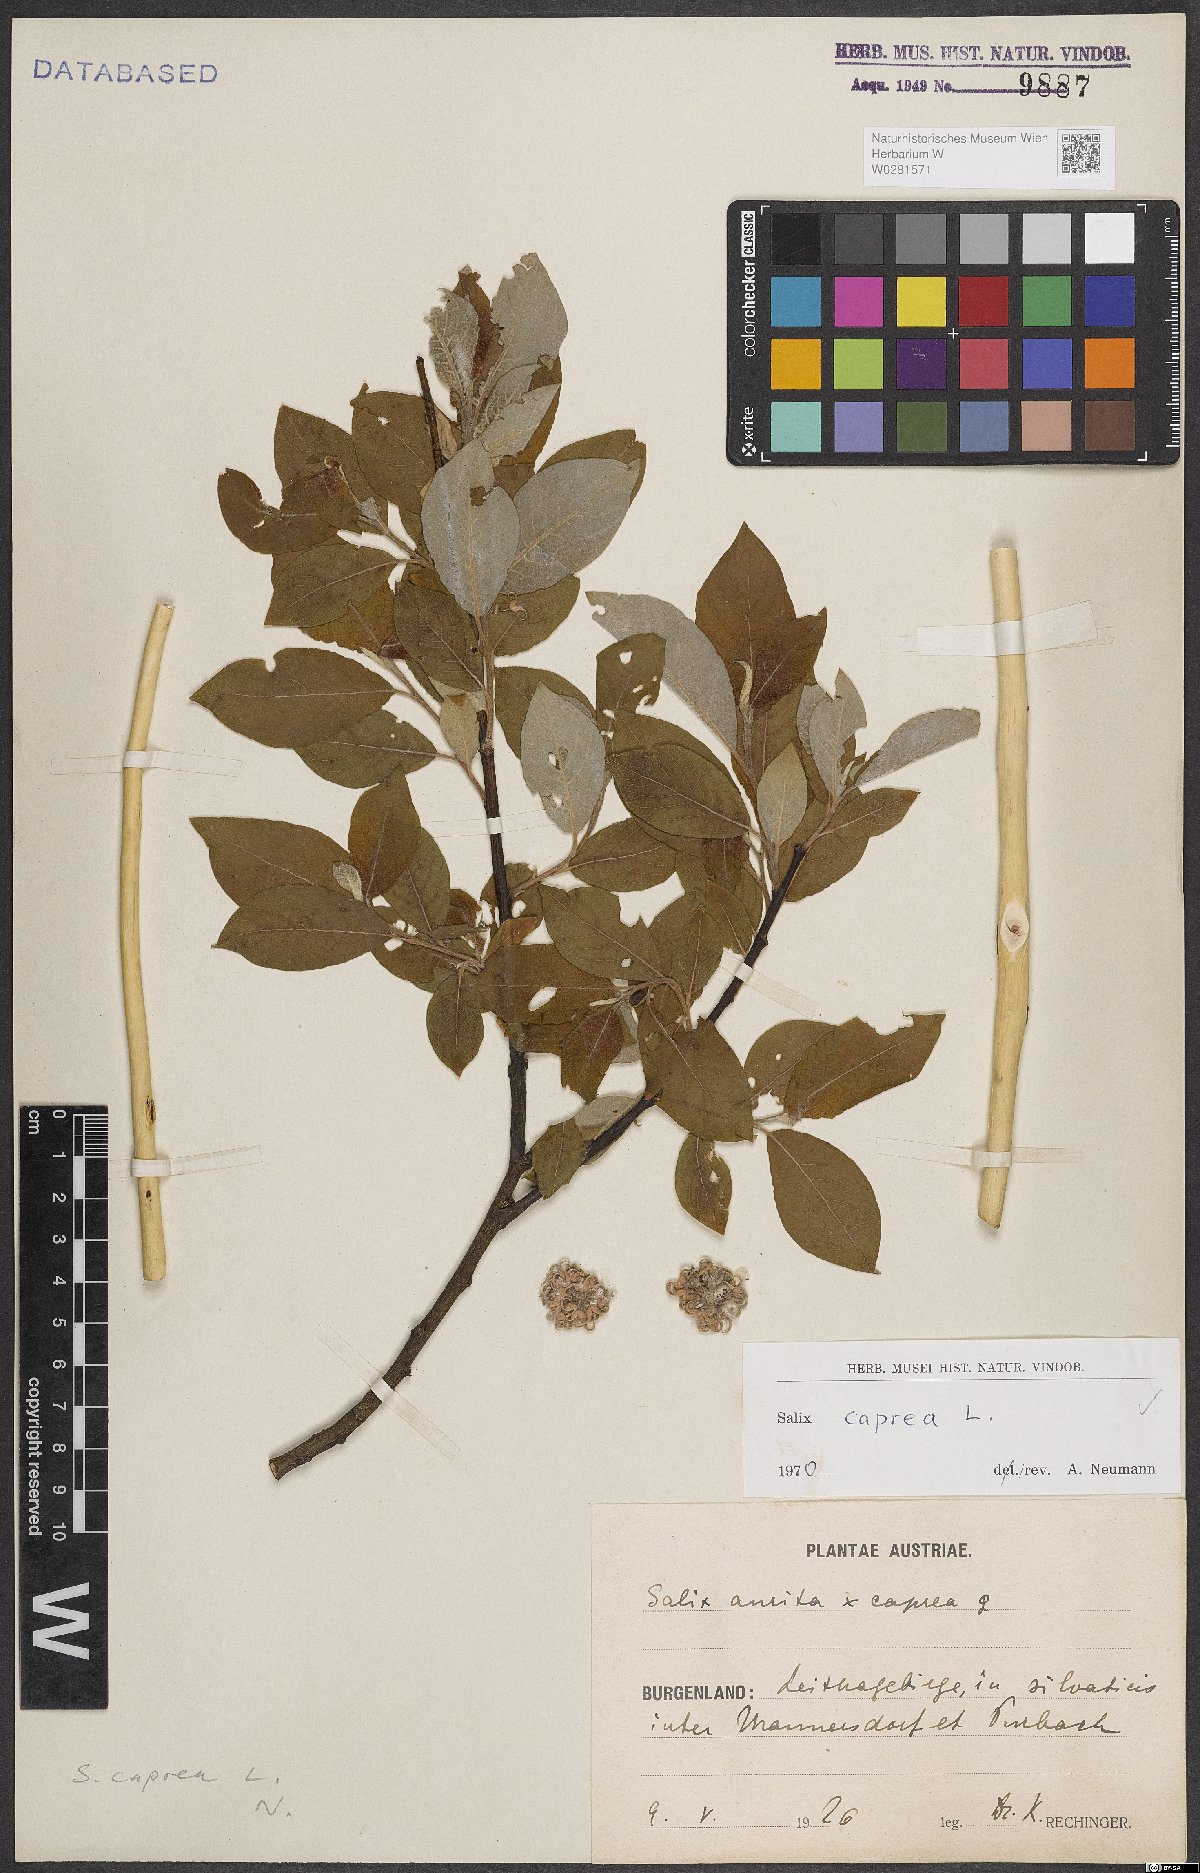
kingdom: Plantae
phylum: Tracheophyta
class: Magnoliopsida
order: Malpighiales
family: Salicaceae
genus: Salix
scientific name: Salix caprea
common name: Goat willow
